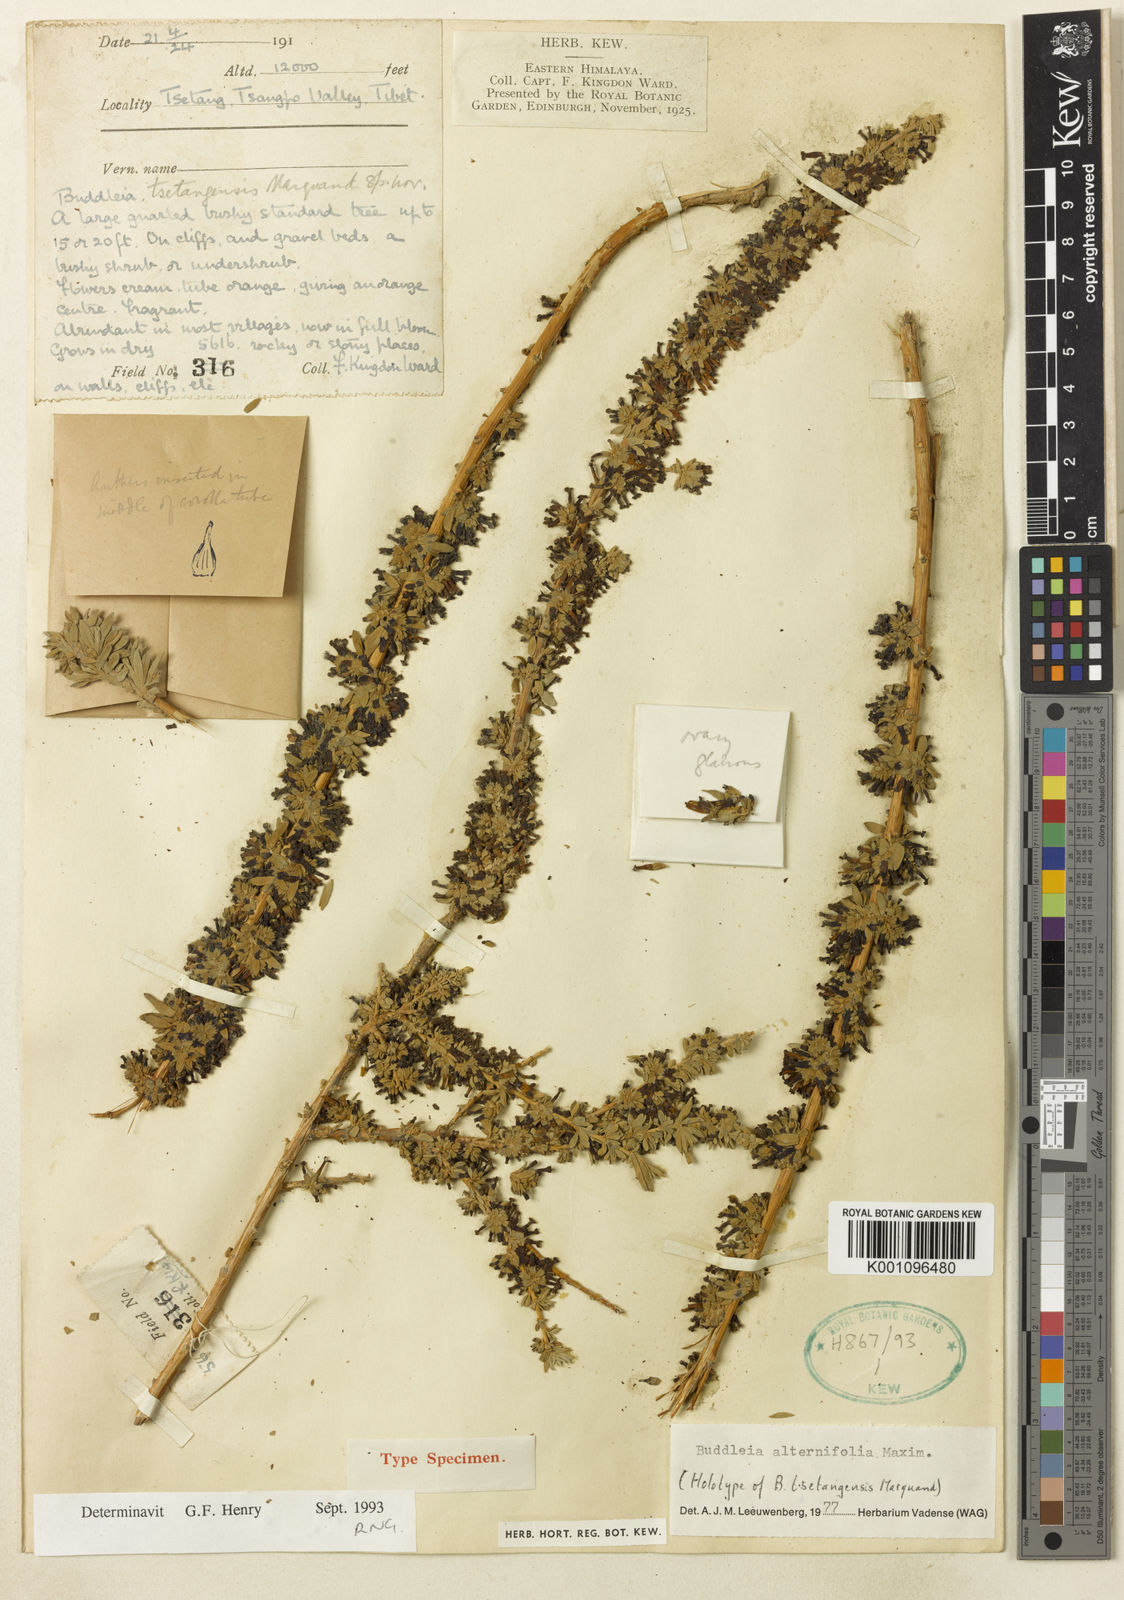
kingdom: Plantae
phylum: Tracheophyta
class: Magnoliopsida
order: Lamiales
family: Scrophulariaceae
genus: Buddleja
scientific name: Buddleja tsetangensis
